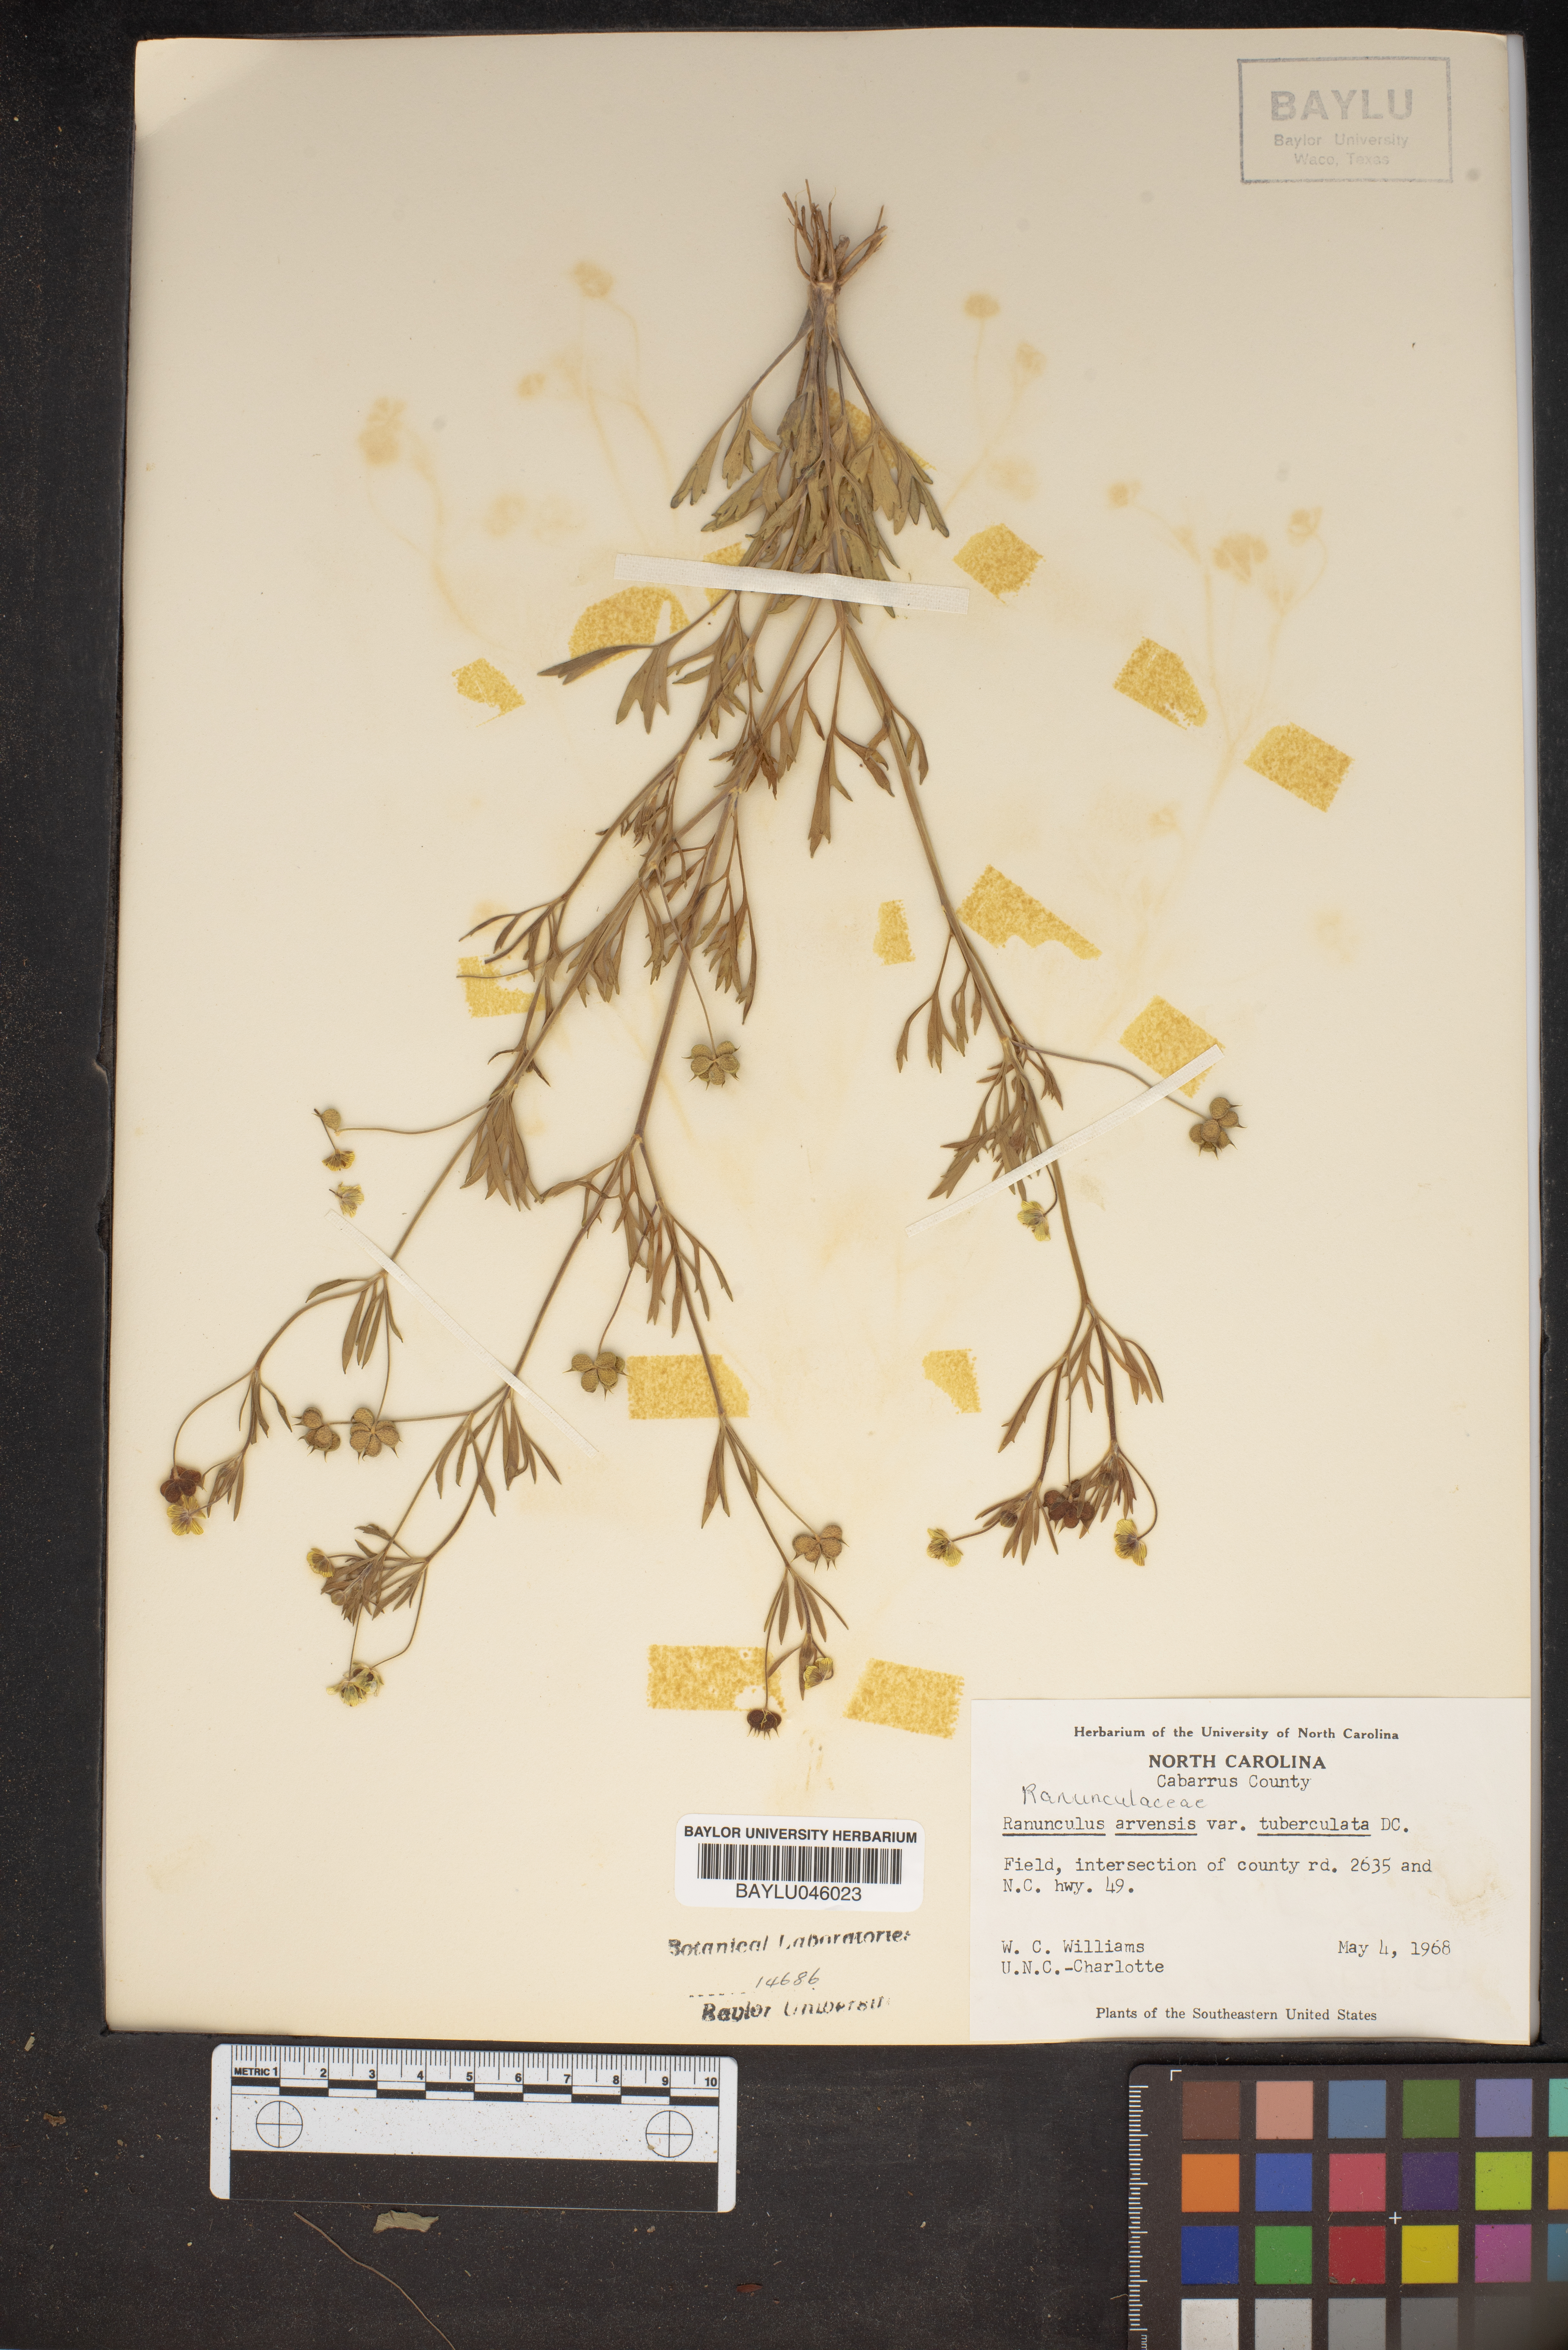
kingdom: Plantae
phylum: Tracheophyta
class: Magnoliopsida
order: Ranunculales
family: Ranunculaceae
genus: Ranunculus
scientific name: Ranunculus arvensis
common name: Corn buttercup
